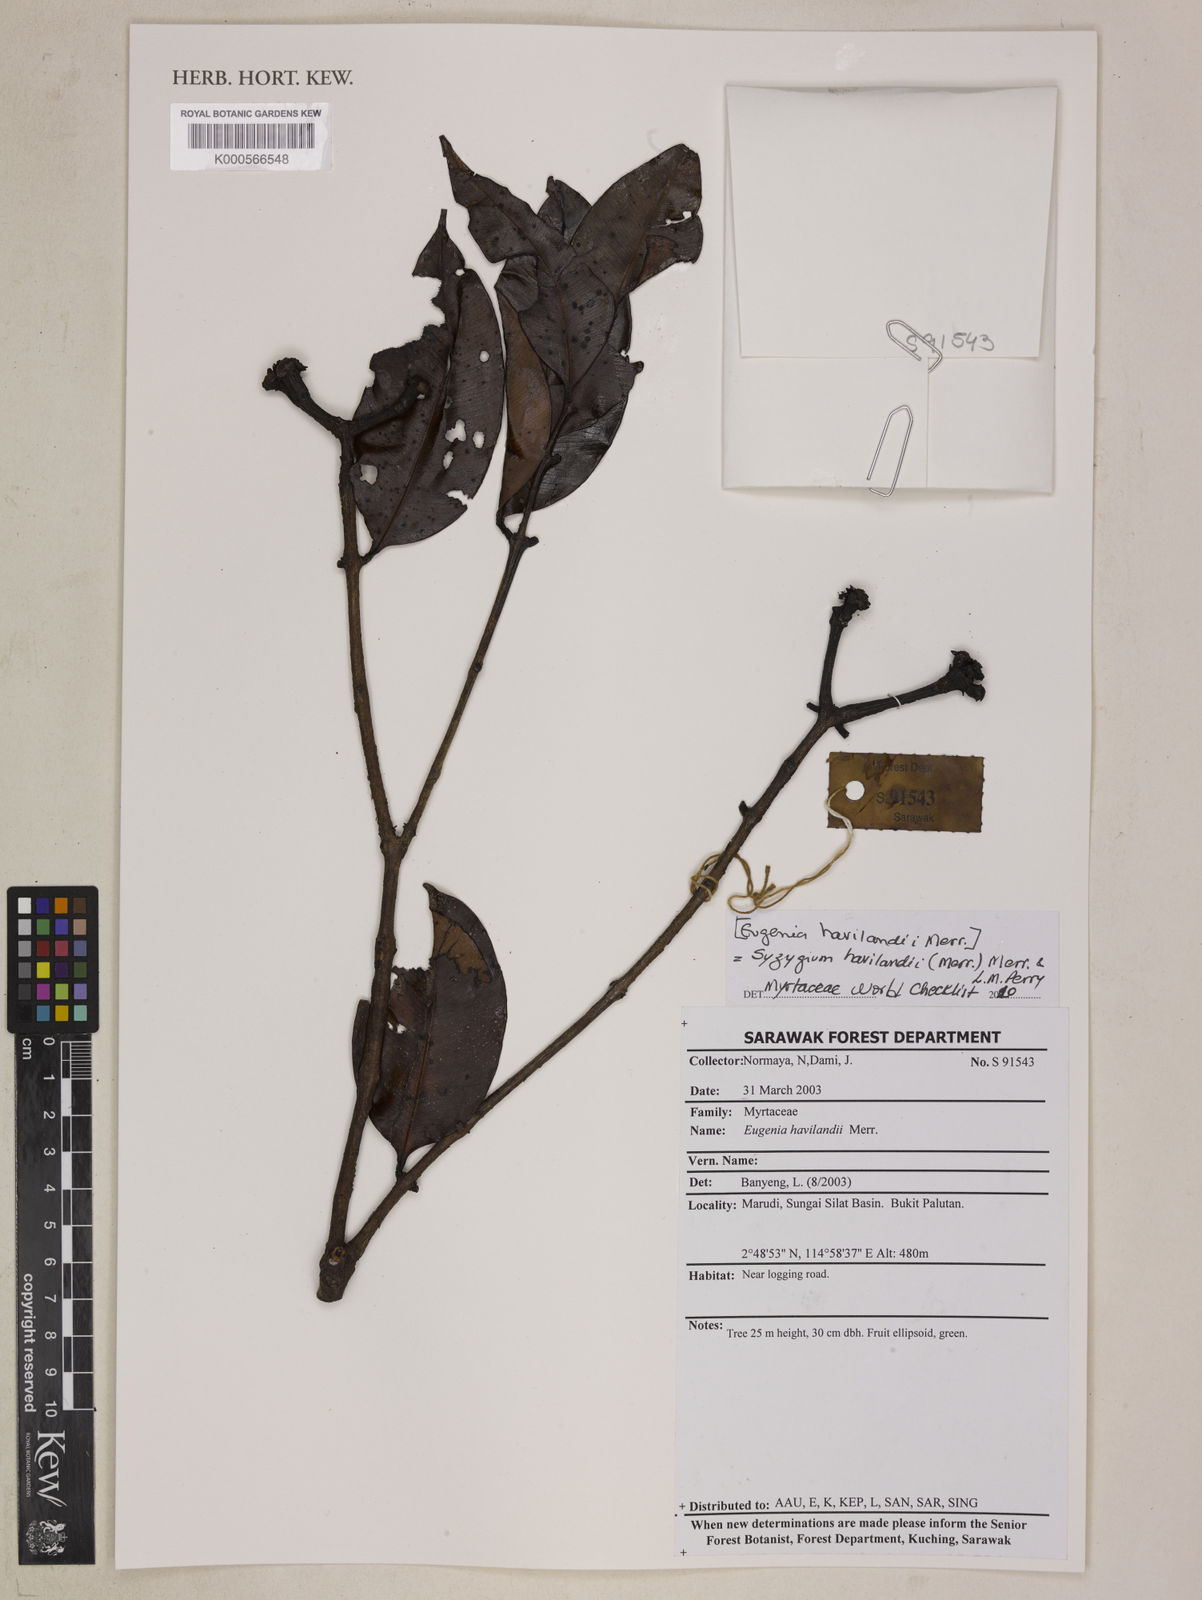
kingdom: Plantae
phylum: Tracheophyta
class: Magnoliopsida
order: Myrtales
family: Myrtaceae
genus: Syzygium
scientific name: Syzygium havilandii
